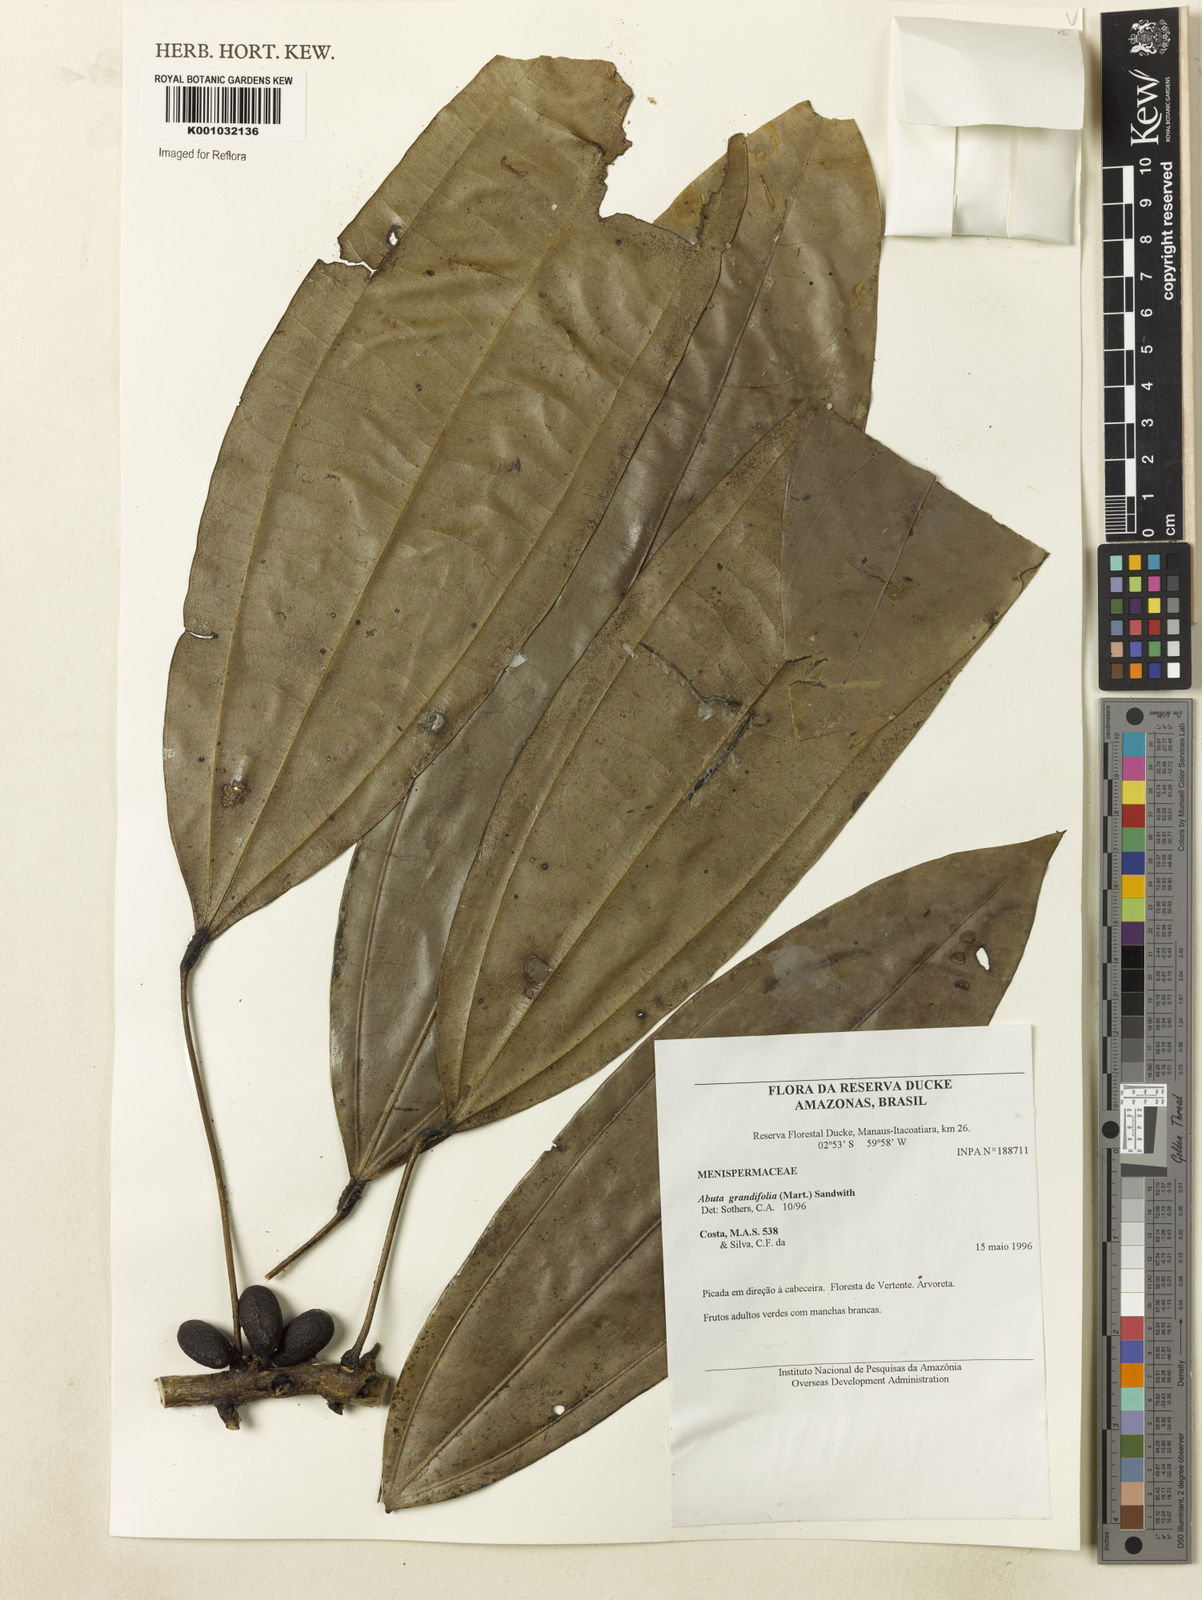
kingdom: Plantae
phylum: Tracheophyta
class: Magnoliopsida
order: Ranunculales
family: Menispermaceae
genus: Abuta
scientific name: Abuta grandifolia
